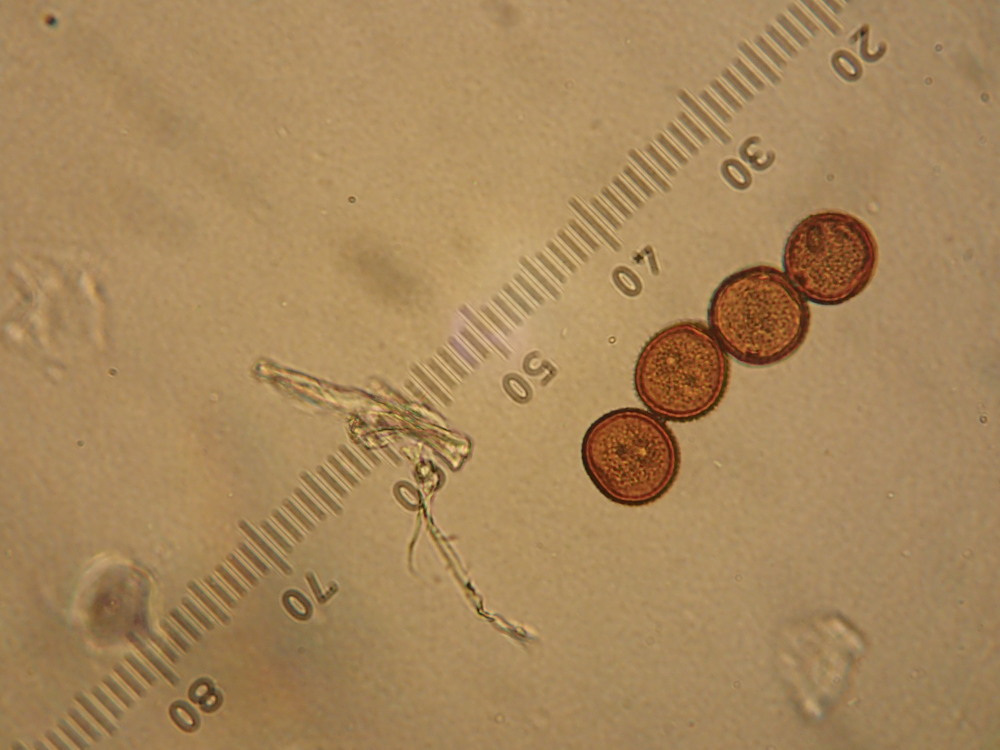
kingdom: Fungi
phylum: Basidiomycota
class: Pucciniomycetes
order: Pucciniales
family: Pucciniaceae
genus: Puccinia
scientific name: Puccinia hieracii
